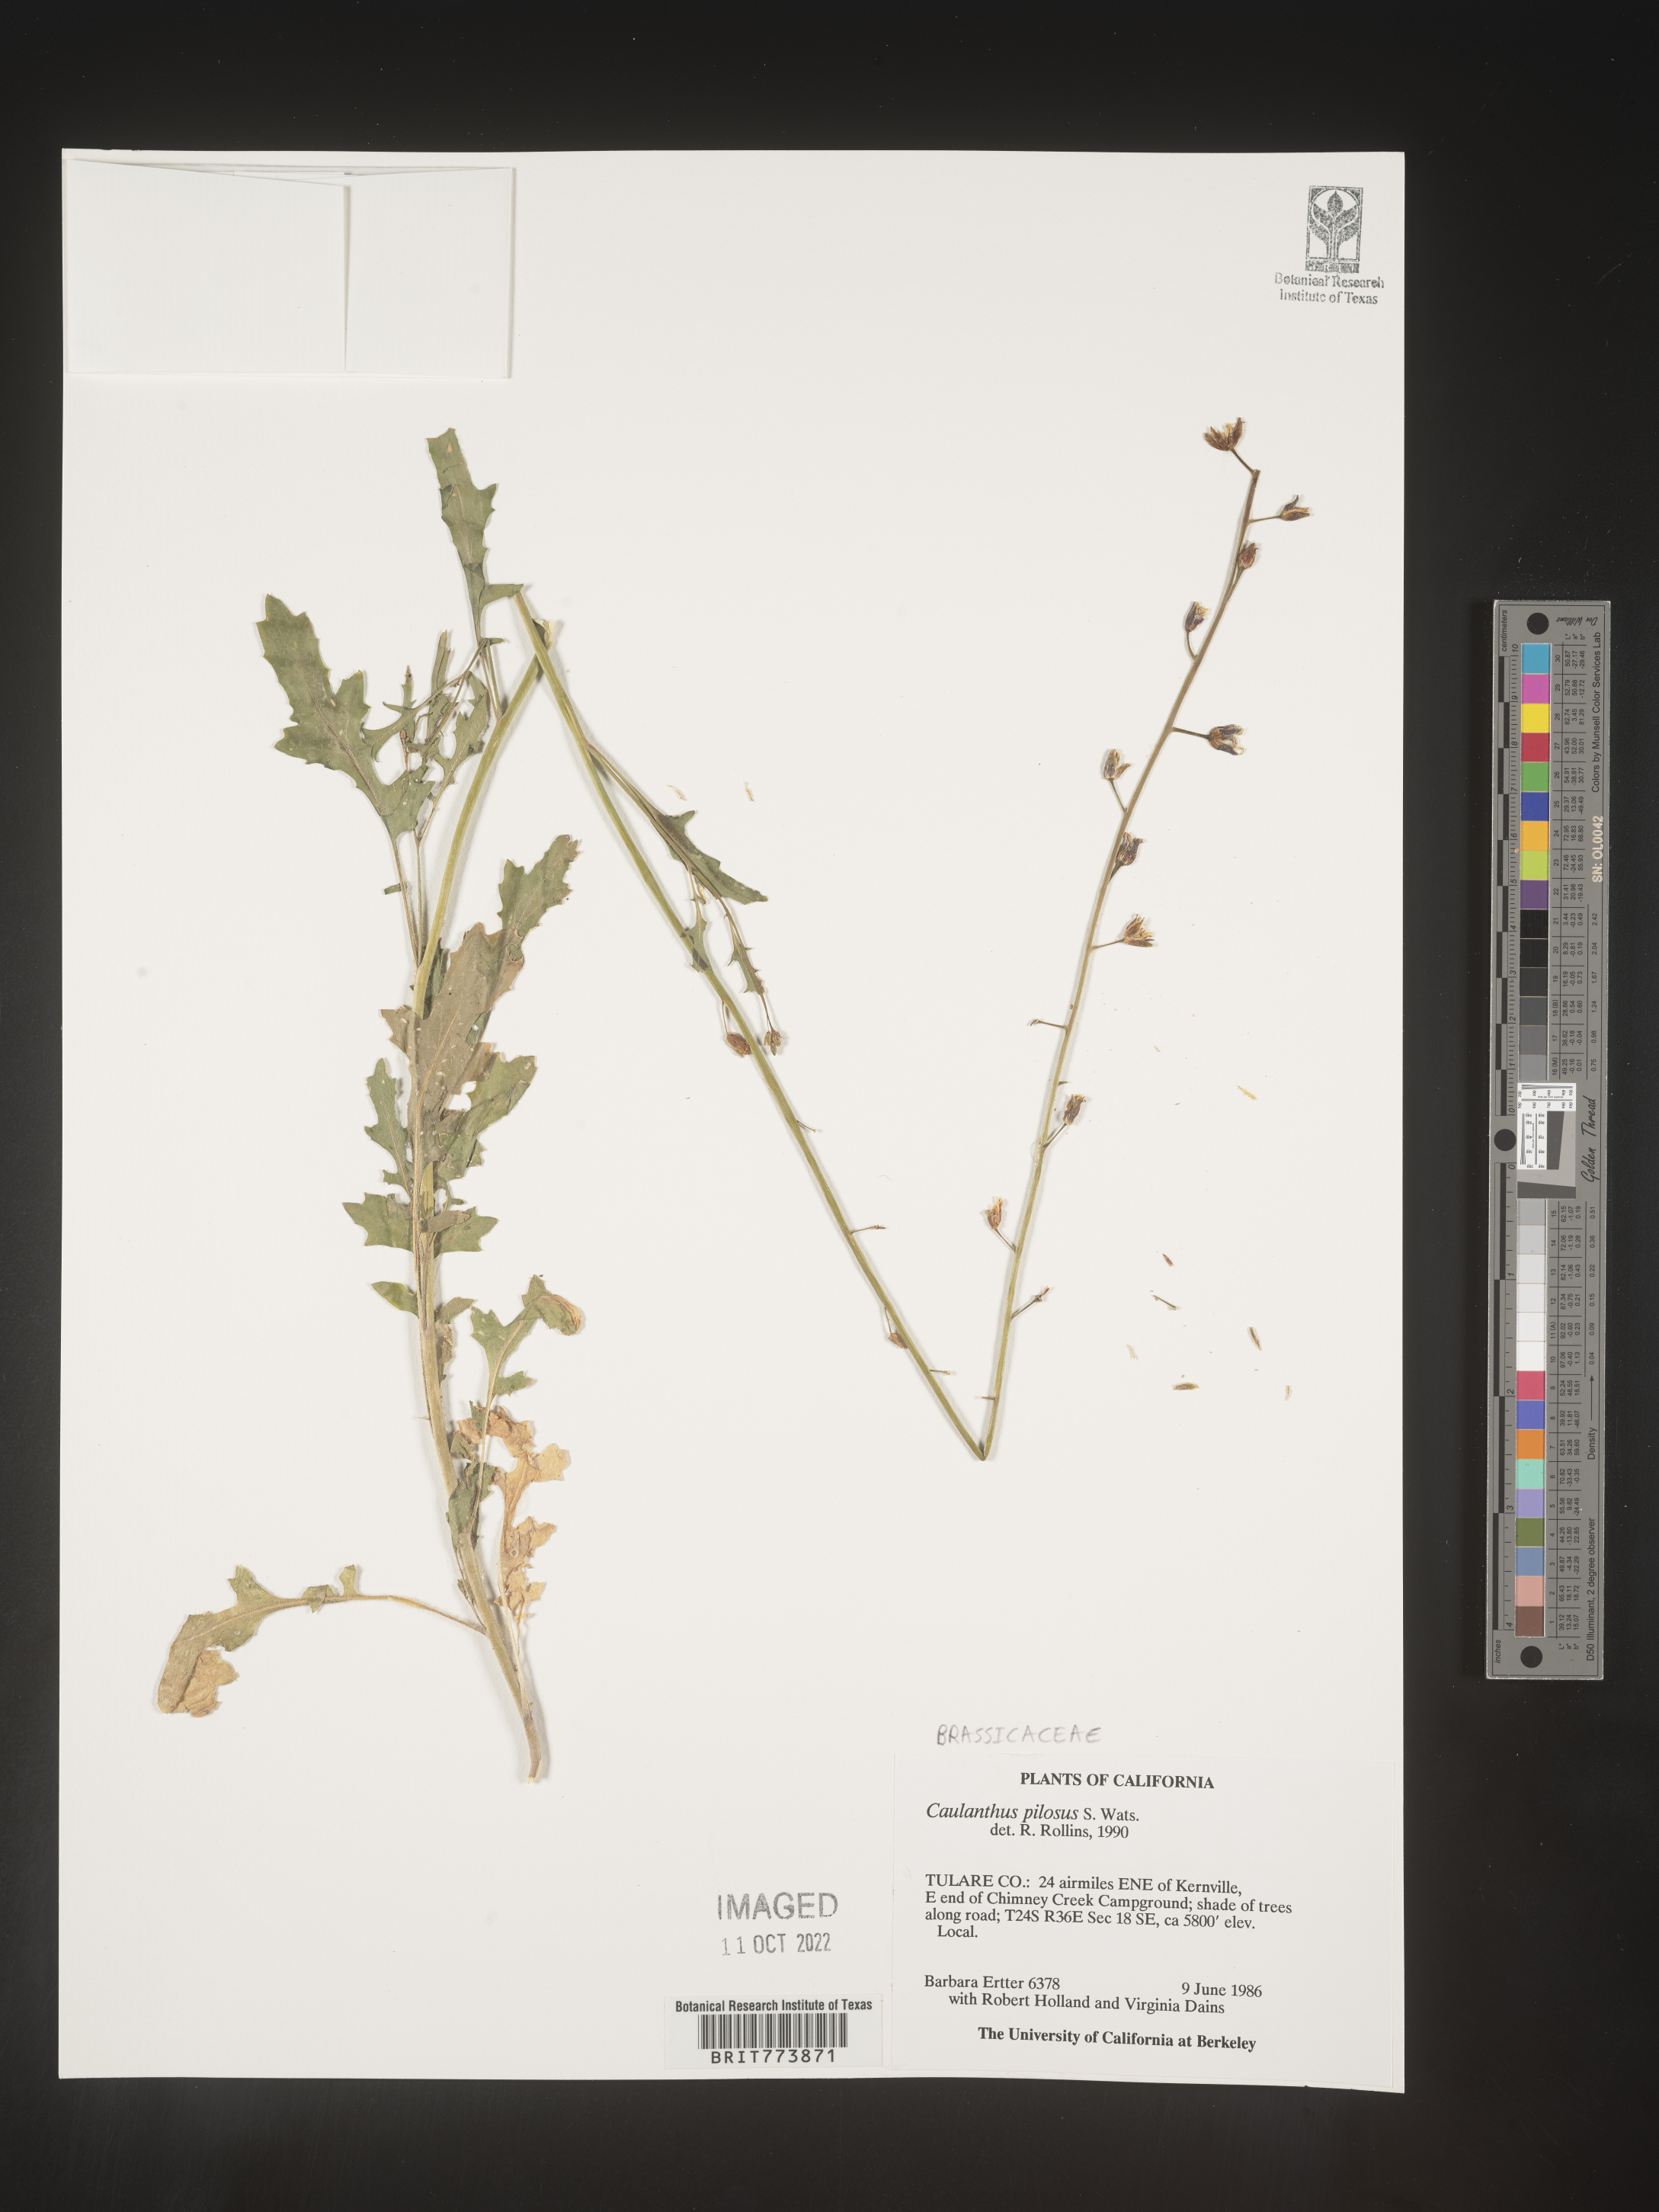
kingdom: Plantae
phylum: Tracheophyta
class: Magnoliopsida
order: Brassicales
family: Brassicaceae
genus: Streptanthus
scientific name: Streptanthus
